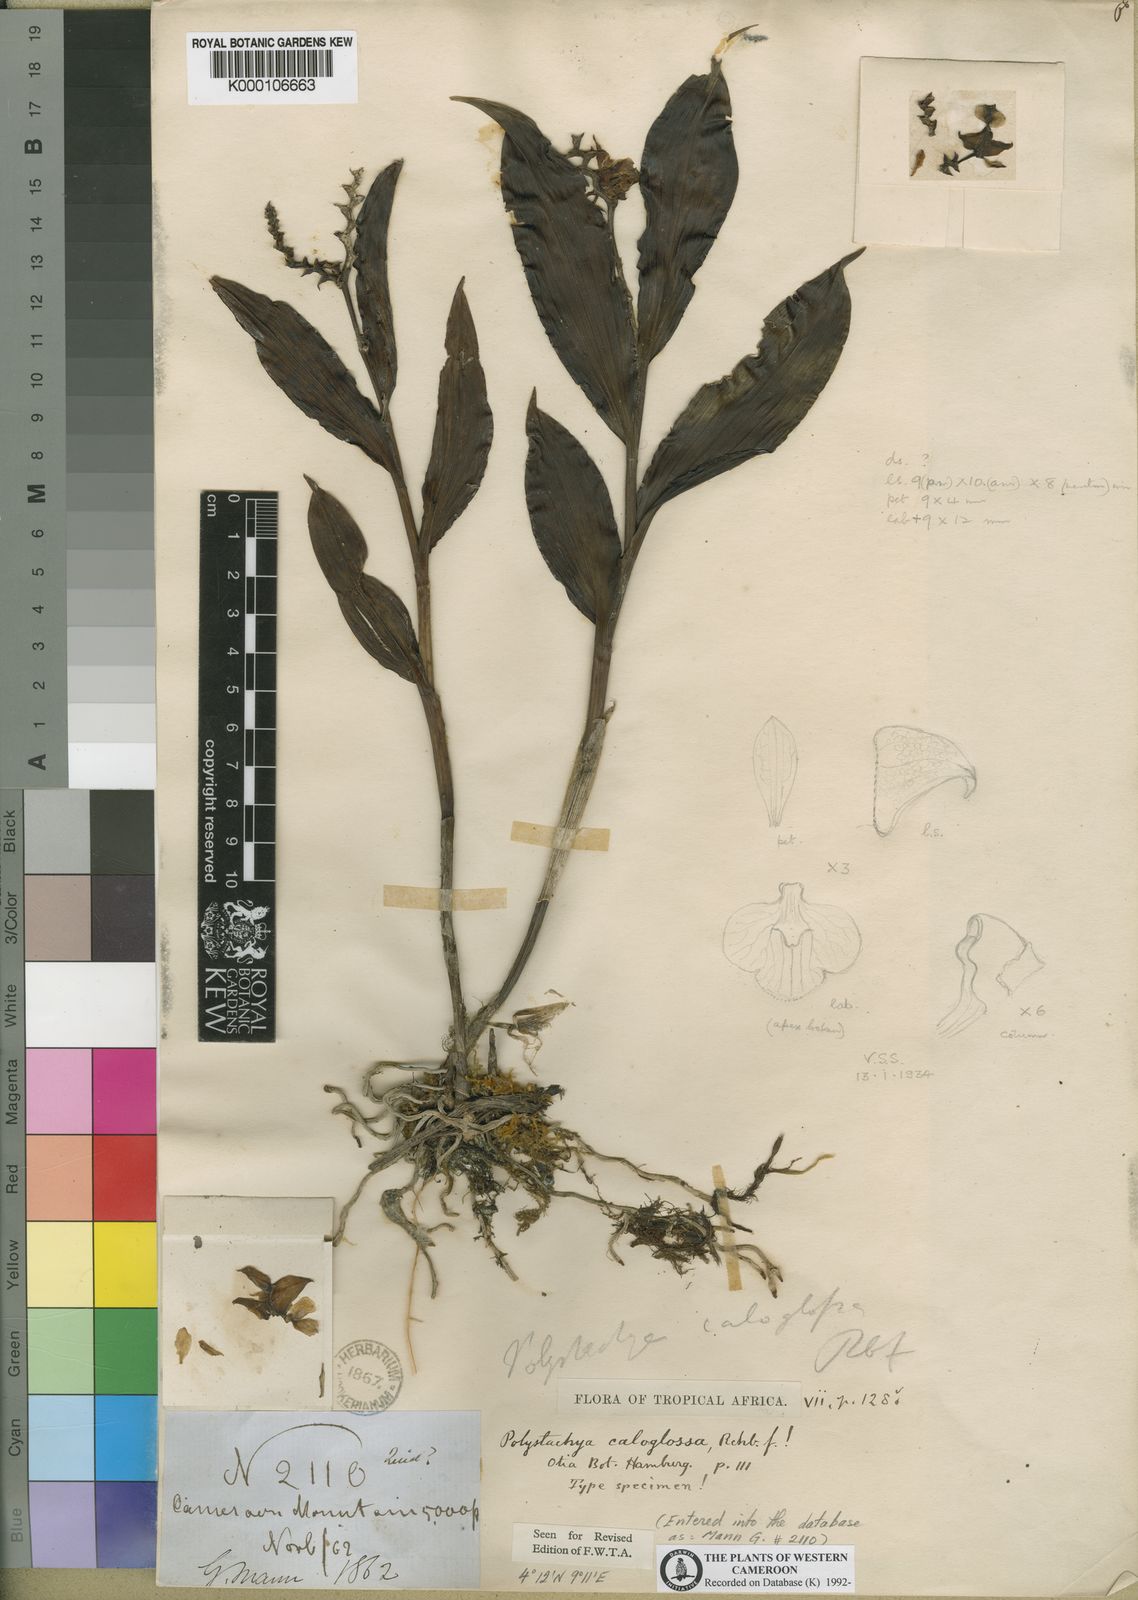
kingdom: Plantae
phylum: Tracheophyta
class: Liliopsida
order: Asparagales
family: Orchidaceae
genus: Polystachya
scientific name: Polystachya caloglossa
